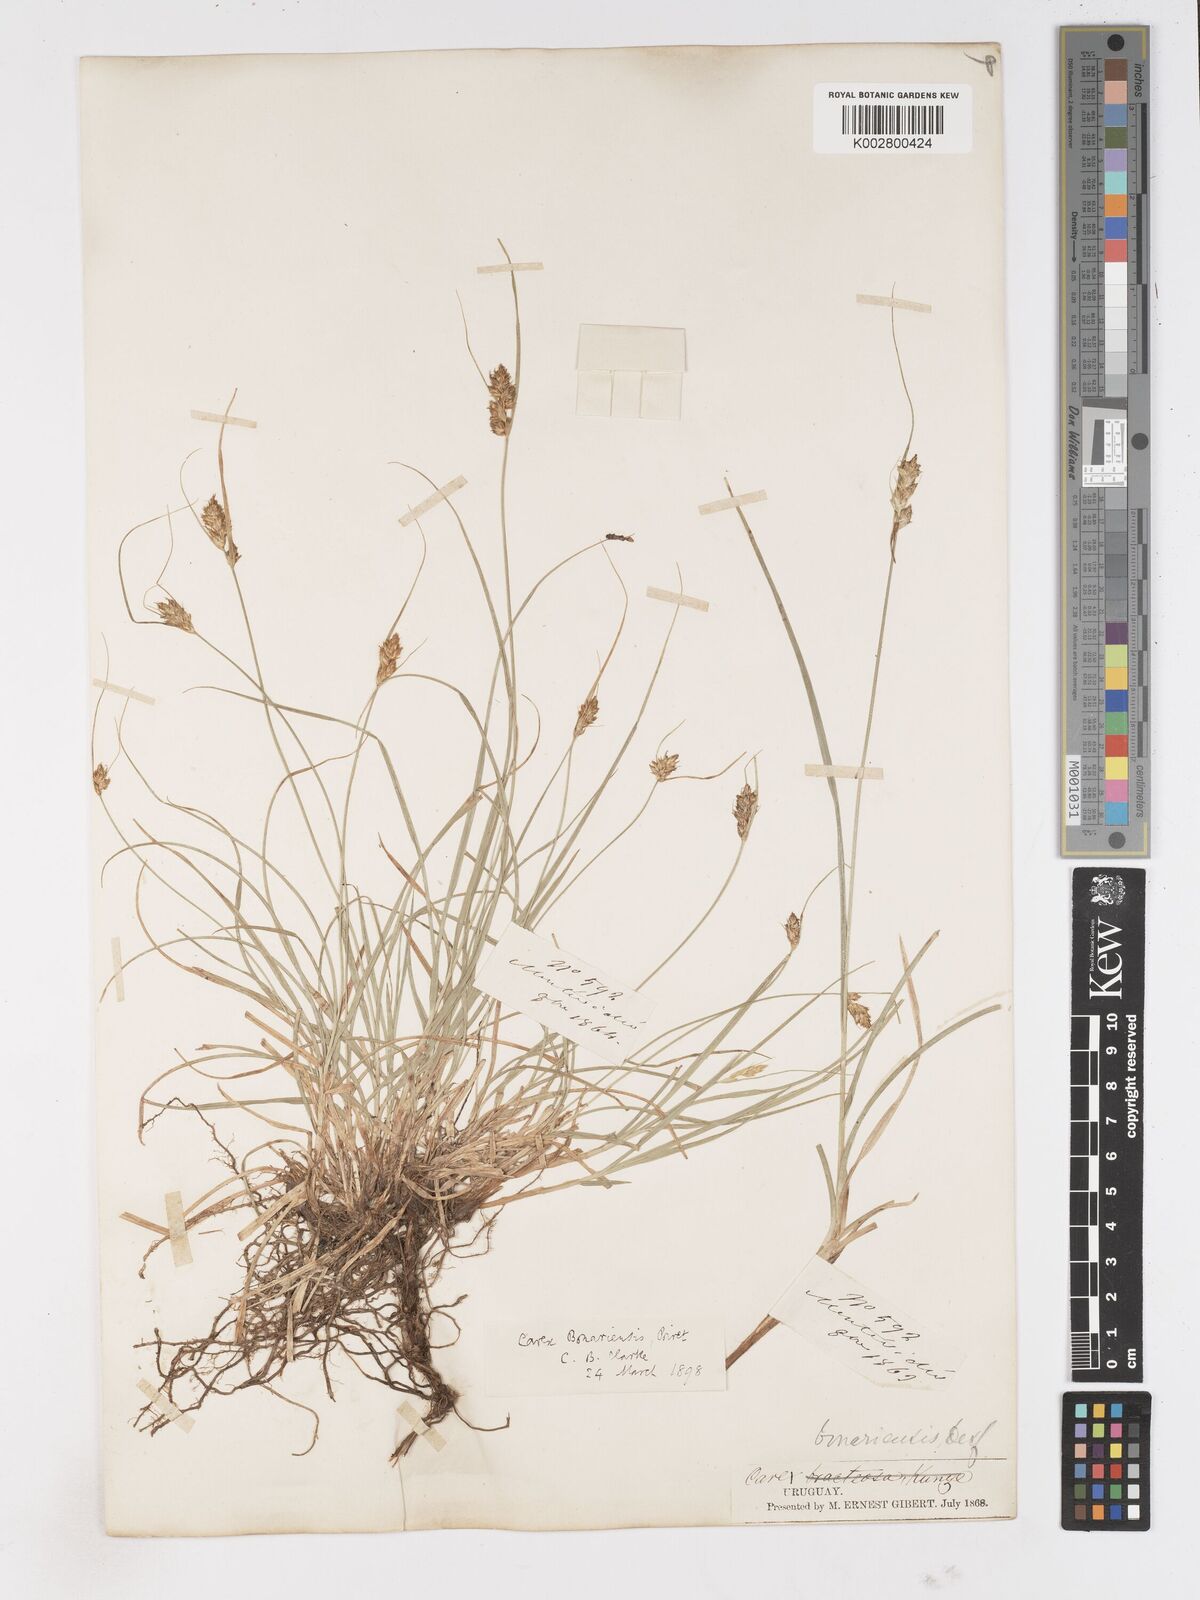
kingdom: Plantae
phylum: Tracheophyta
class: Liliopsida
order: Poales
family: Cyperaceae
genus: Carex
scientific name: Carex bonariensis
